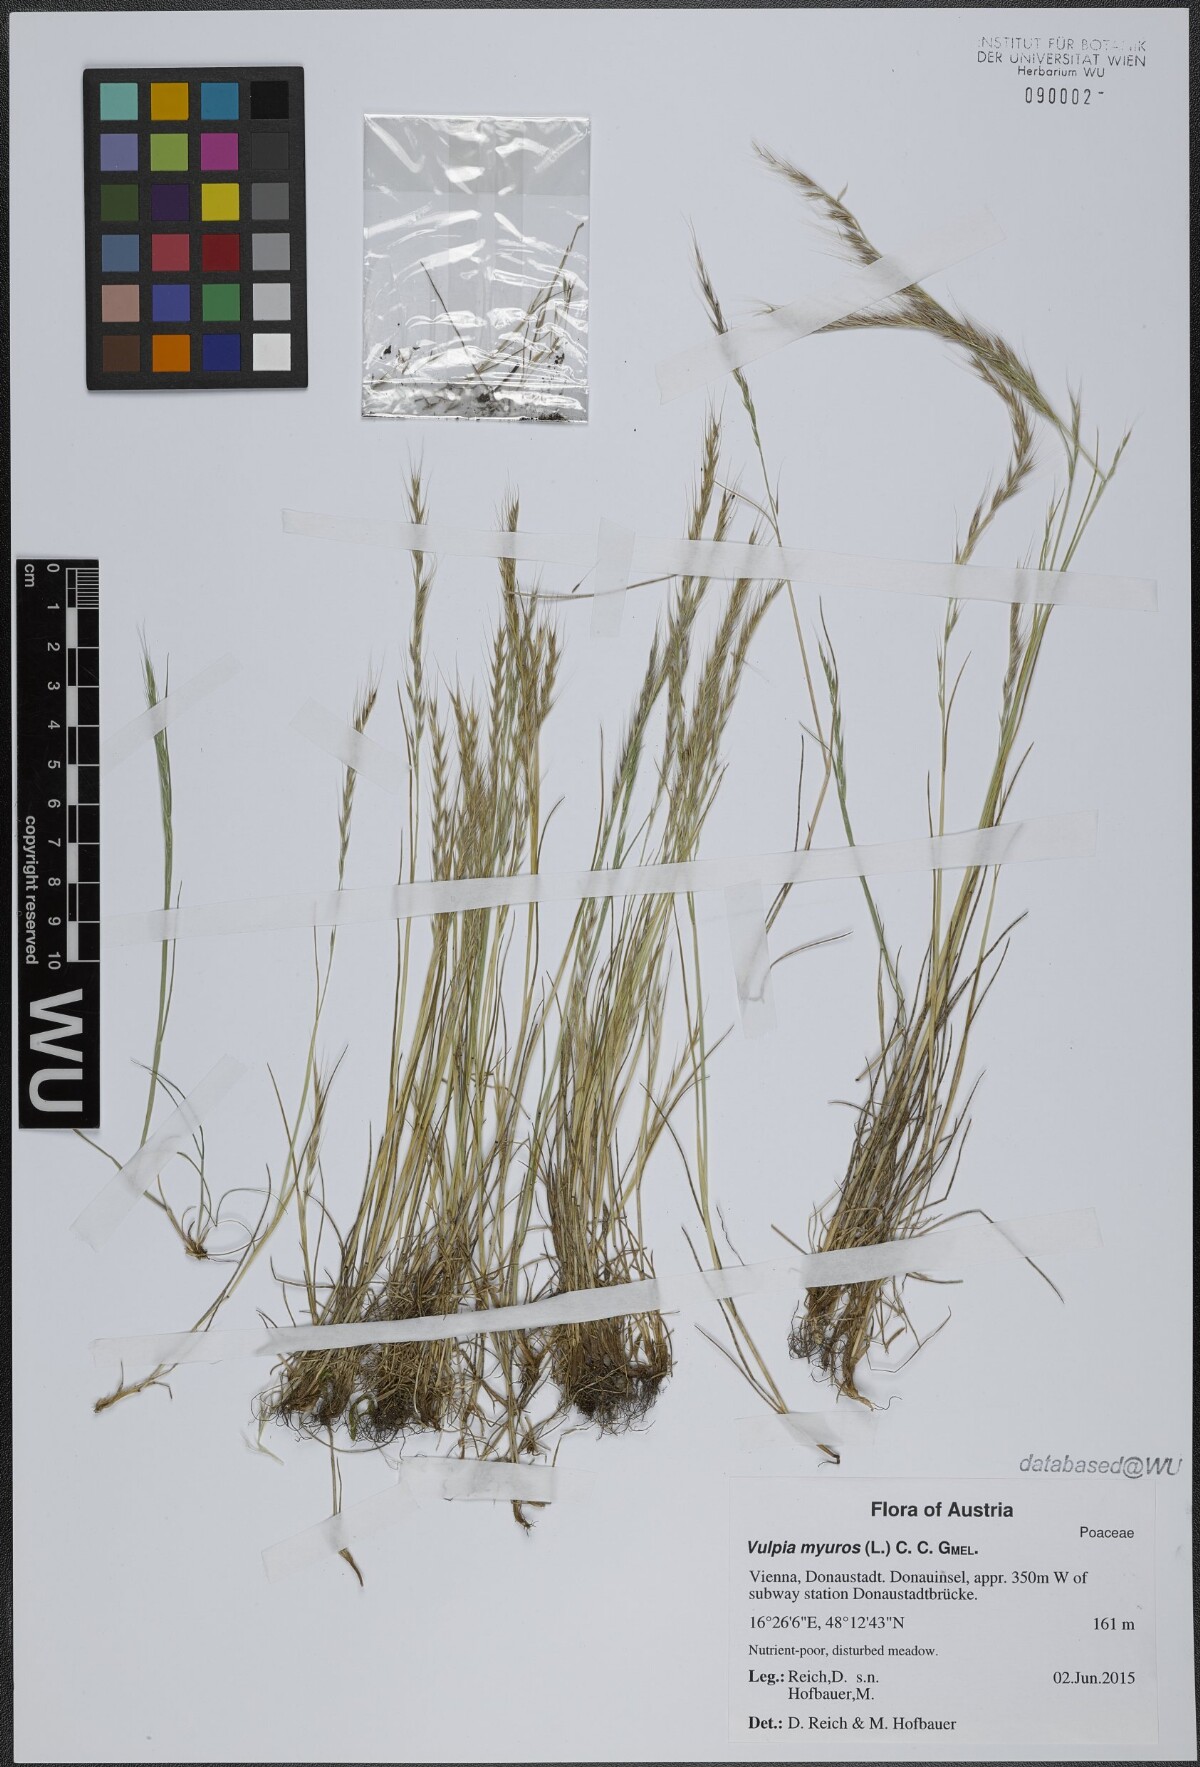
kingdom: Plantae
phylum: Tracheophyta
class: Liliopsida
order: Poales
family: Poaceae
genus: Festuca
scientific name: Festuca myuros
